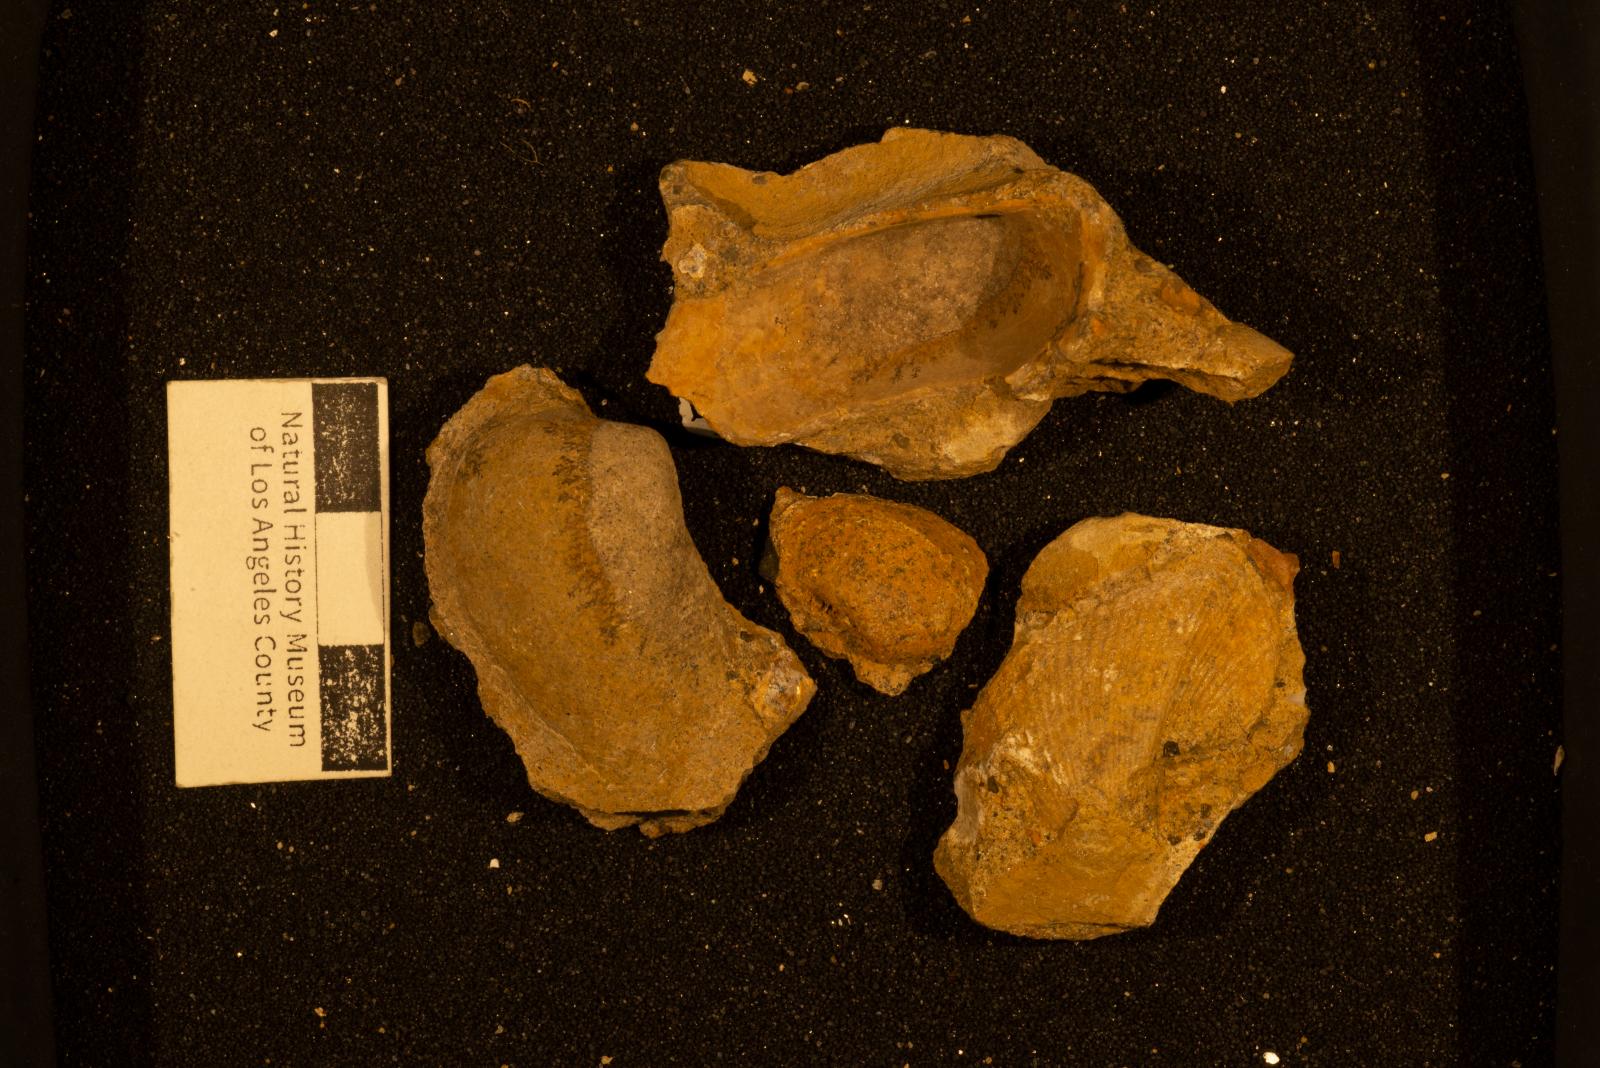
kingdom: Animalia
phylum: Mollusca
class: Bivalvia
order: Arcida
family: Arcidae
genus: Indogrammatodon
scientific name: Indogrammatodon
